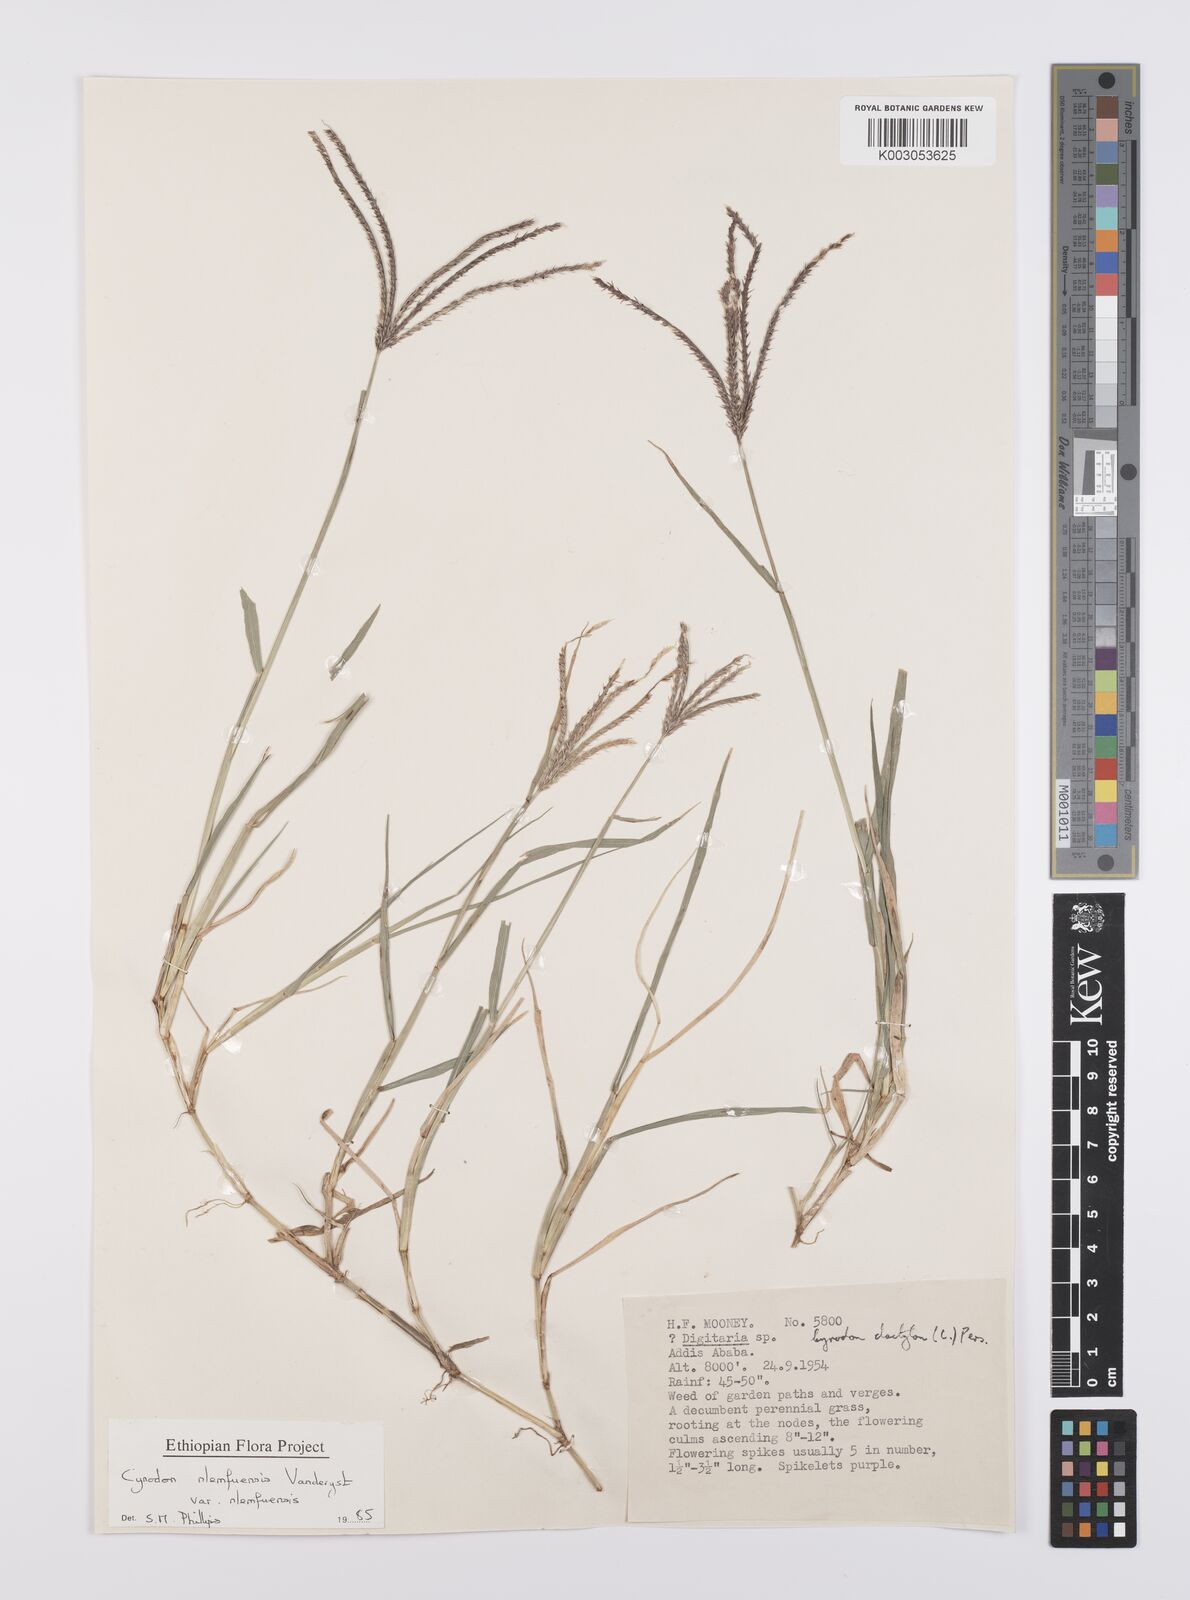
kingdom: Plantae
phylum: Tracheophyta
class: Liliopsida
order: Poales
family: Poaceae
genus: Cynodon
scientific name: Cynodon nlemfuensis
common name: African bermudagrass
